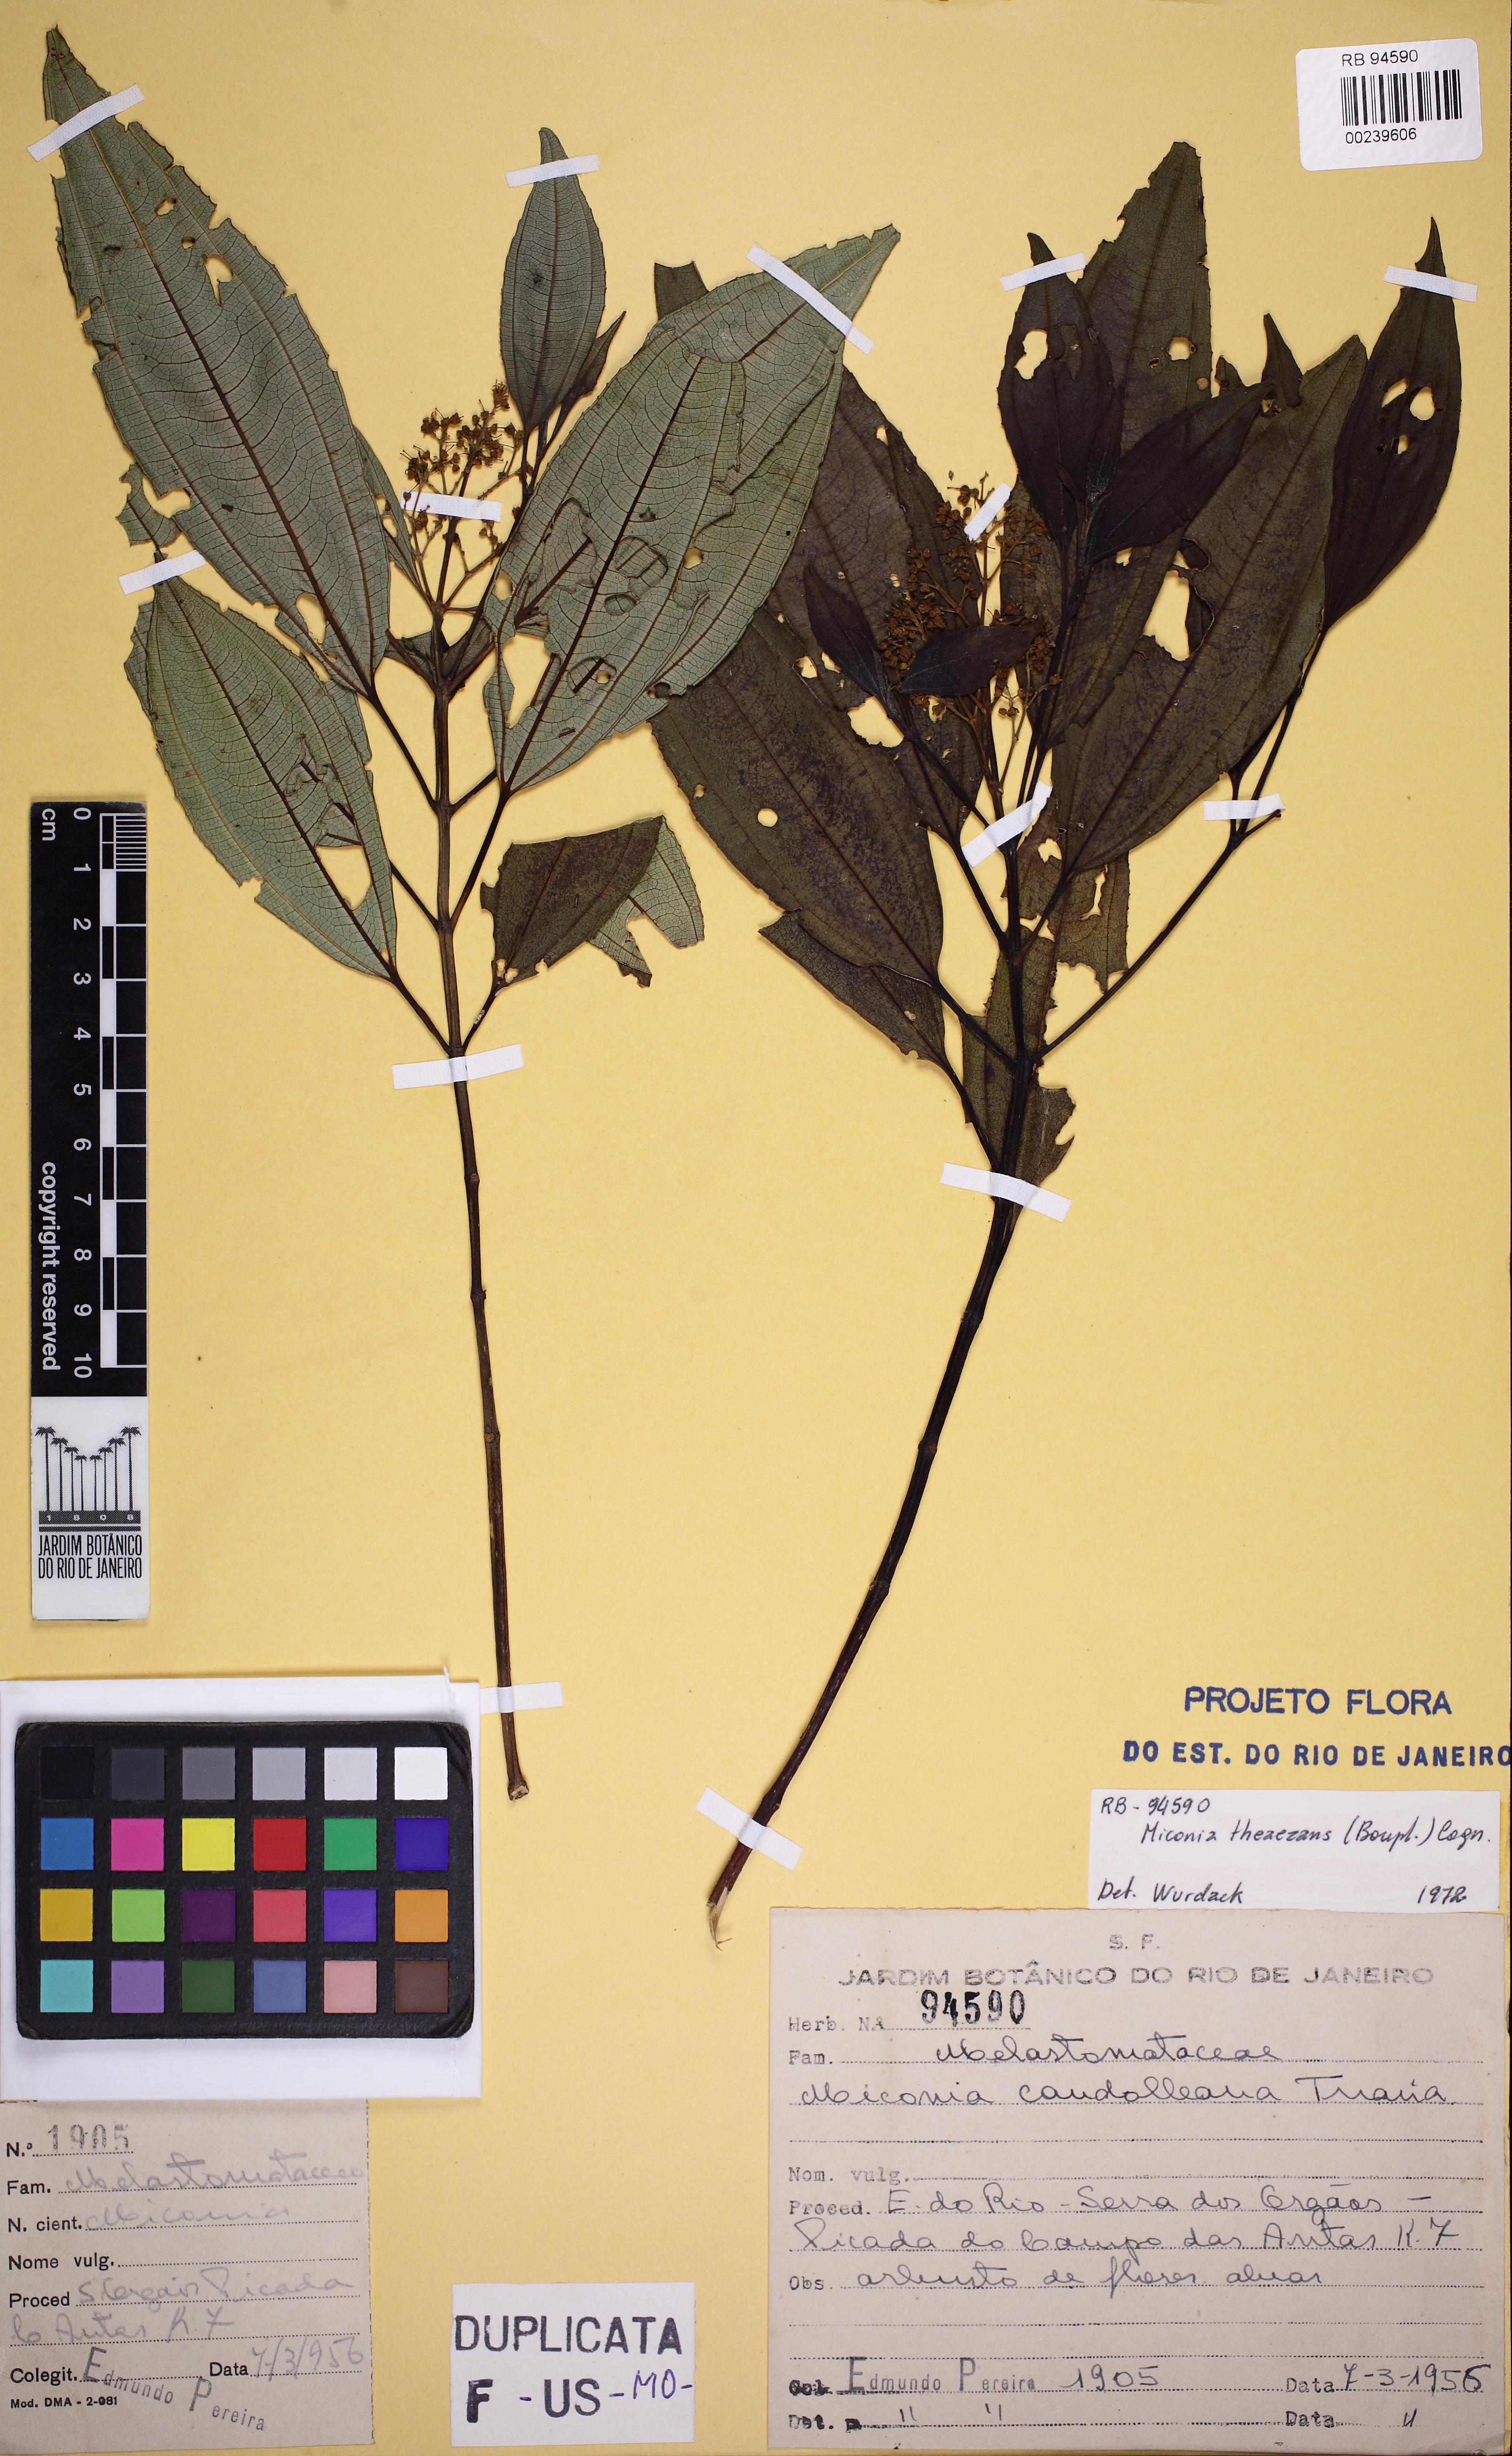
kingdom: Plantae
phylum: Tracheophyta
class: Magnoliopsida
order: Myrtales
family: Melastomataceae
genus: Miconia
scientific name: Miconia theizans
